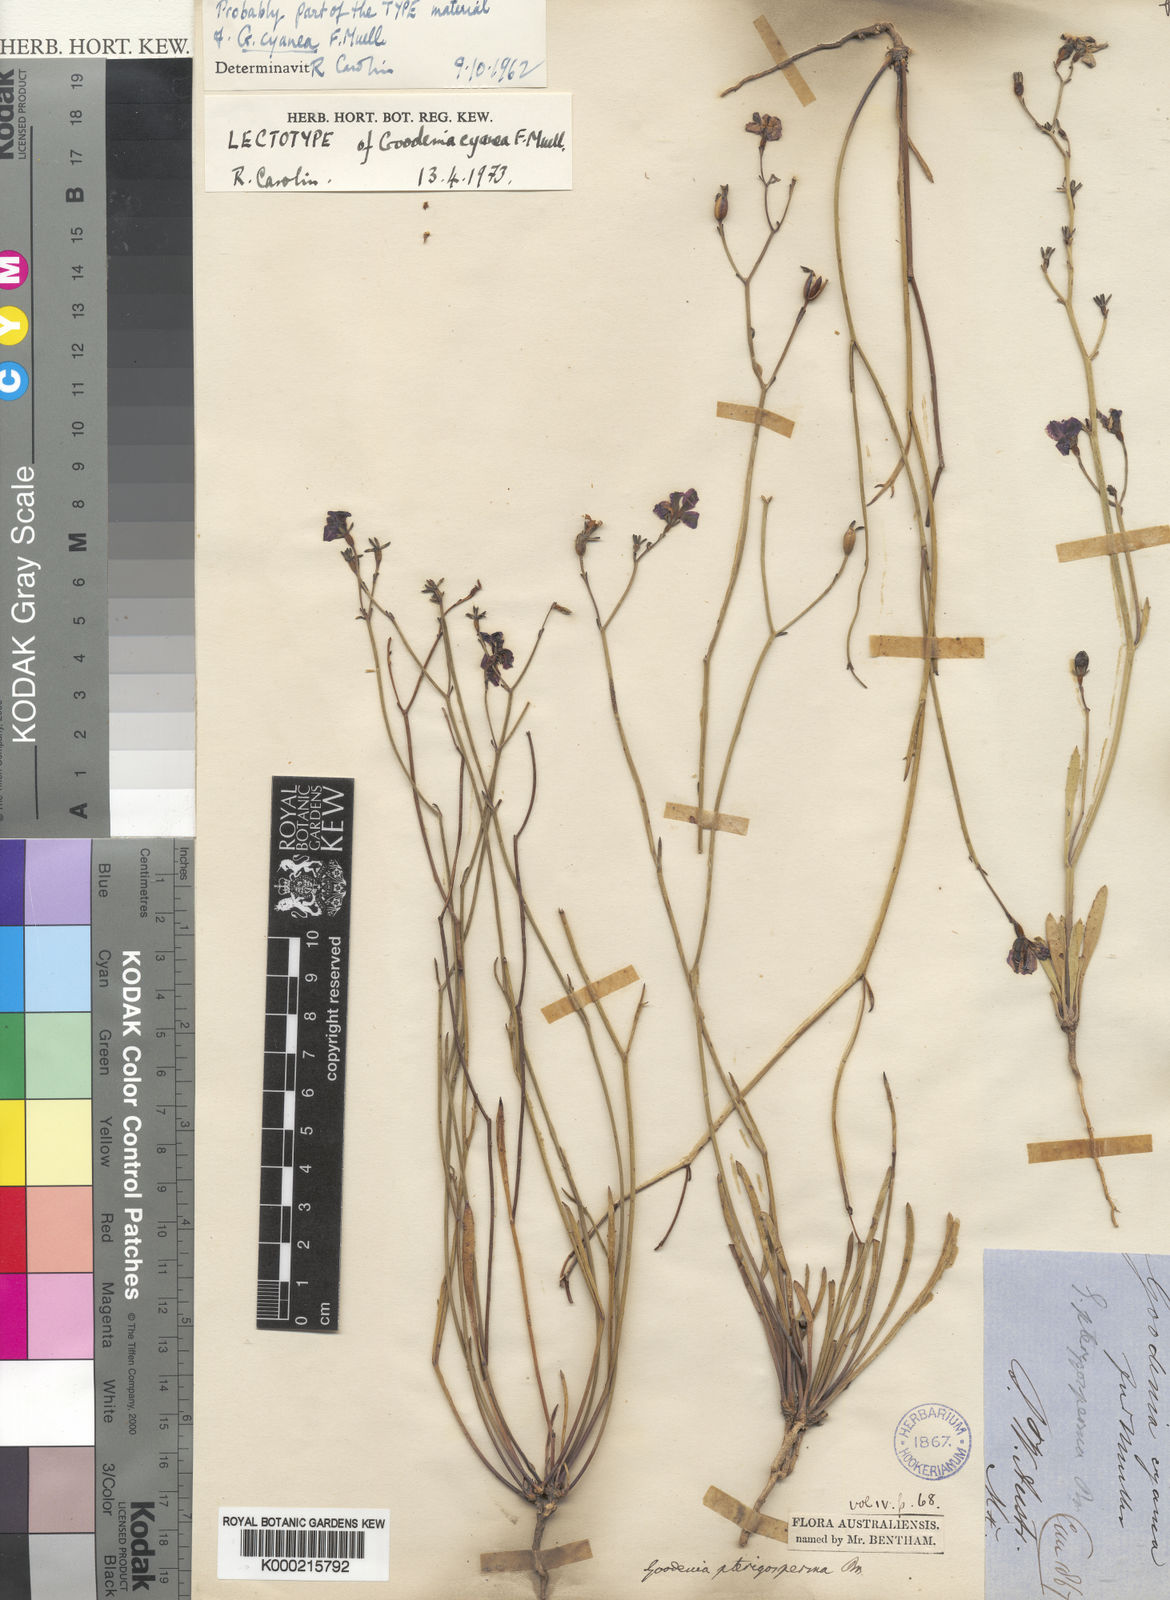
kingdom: Plantae
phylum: Tracheophyta
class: Magnoliopsida
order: Asterales
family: Goodeniaceae
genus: Goodenia
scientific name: Goodenia pterygosperma
